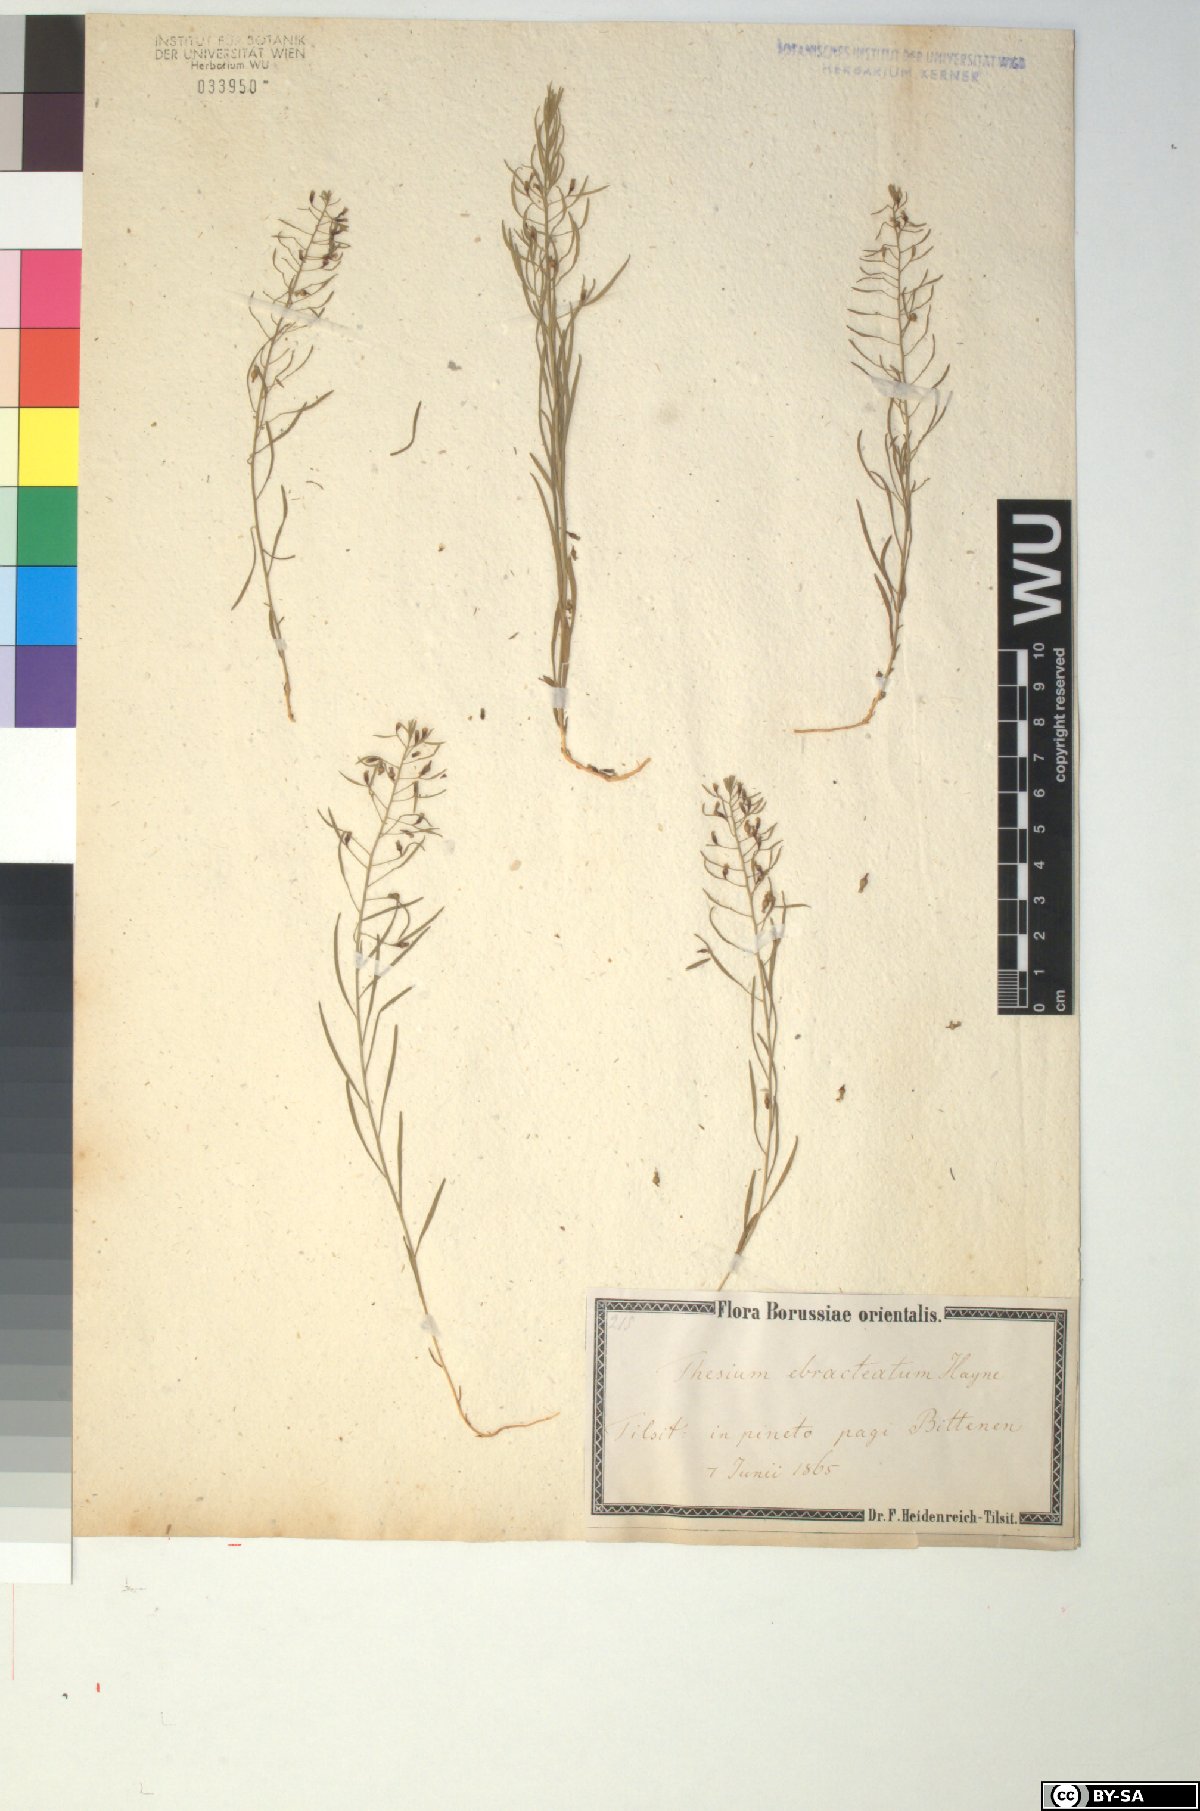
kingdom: Plantae
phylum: Tracheophyta
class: Magnoliopsida
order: Santalales
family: Thesiaceae
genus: Thesium
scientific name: Thesium ebracteatum
